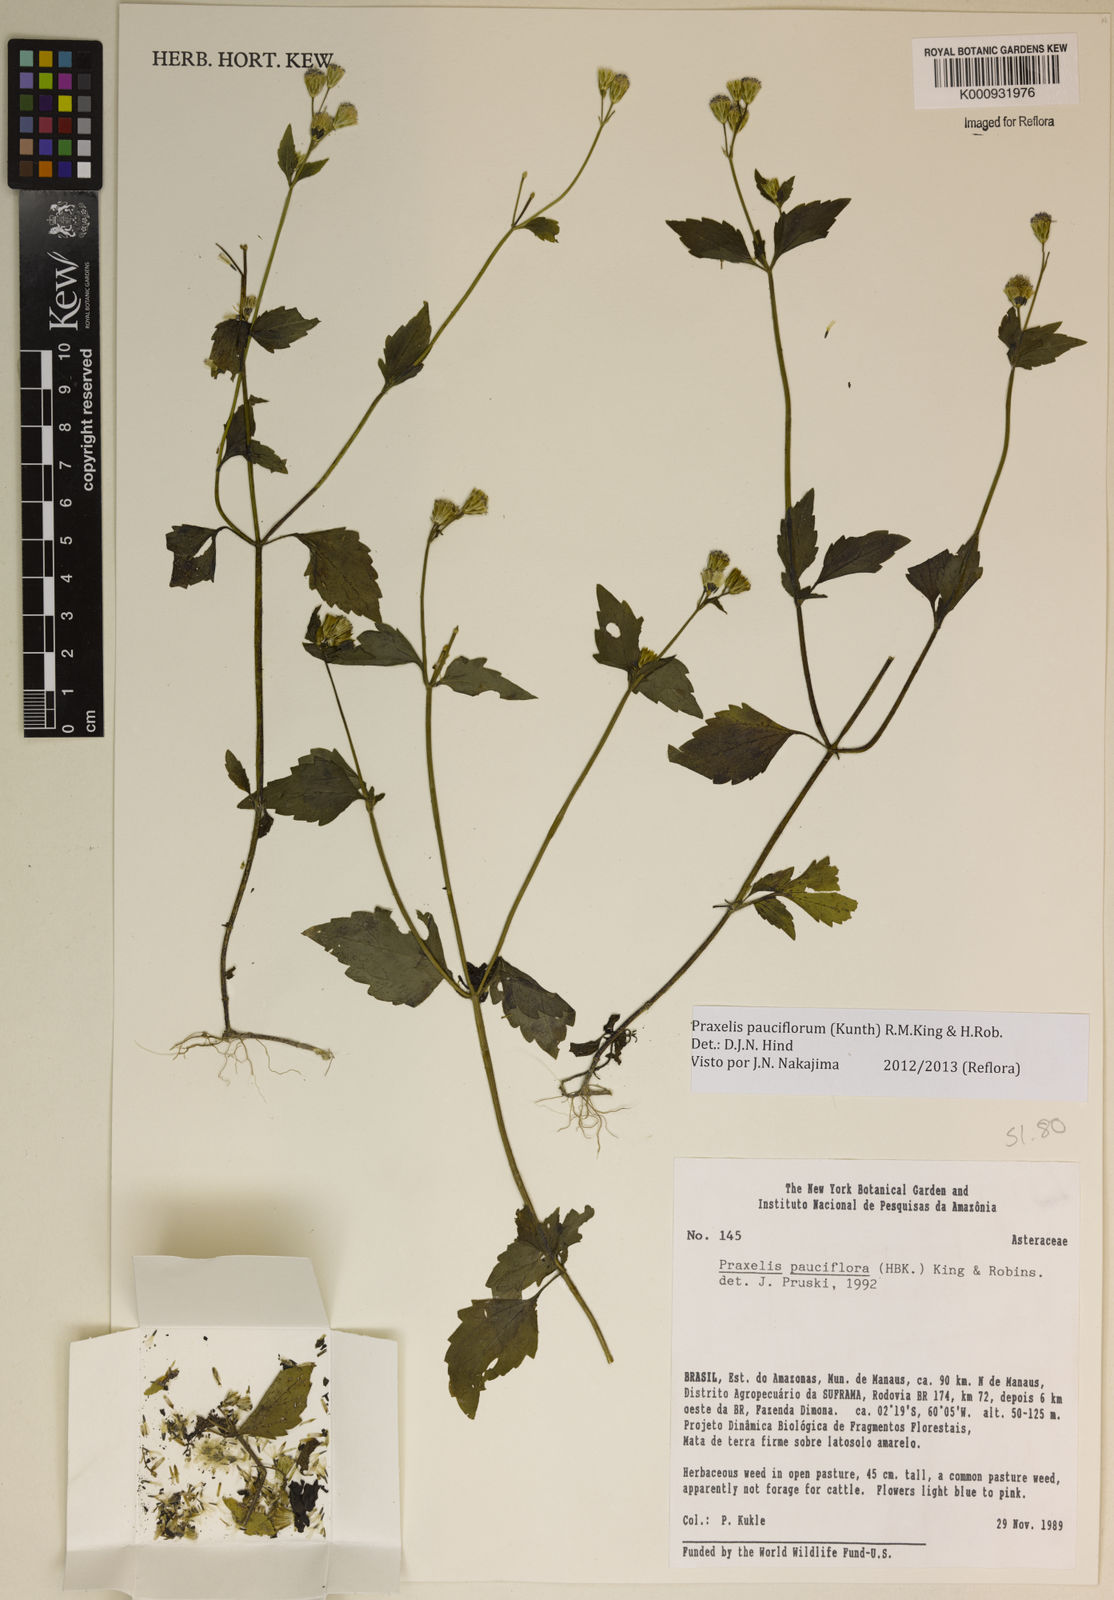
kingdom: Plantae
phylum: Tracheophyta
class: Magnoliopsida
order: Asterales
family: Asteraceae
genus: Praxelis
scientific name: Praxelis diffusa
